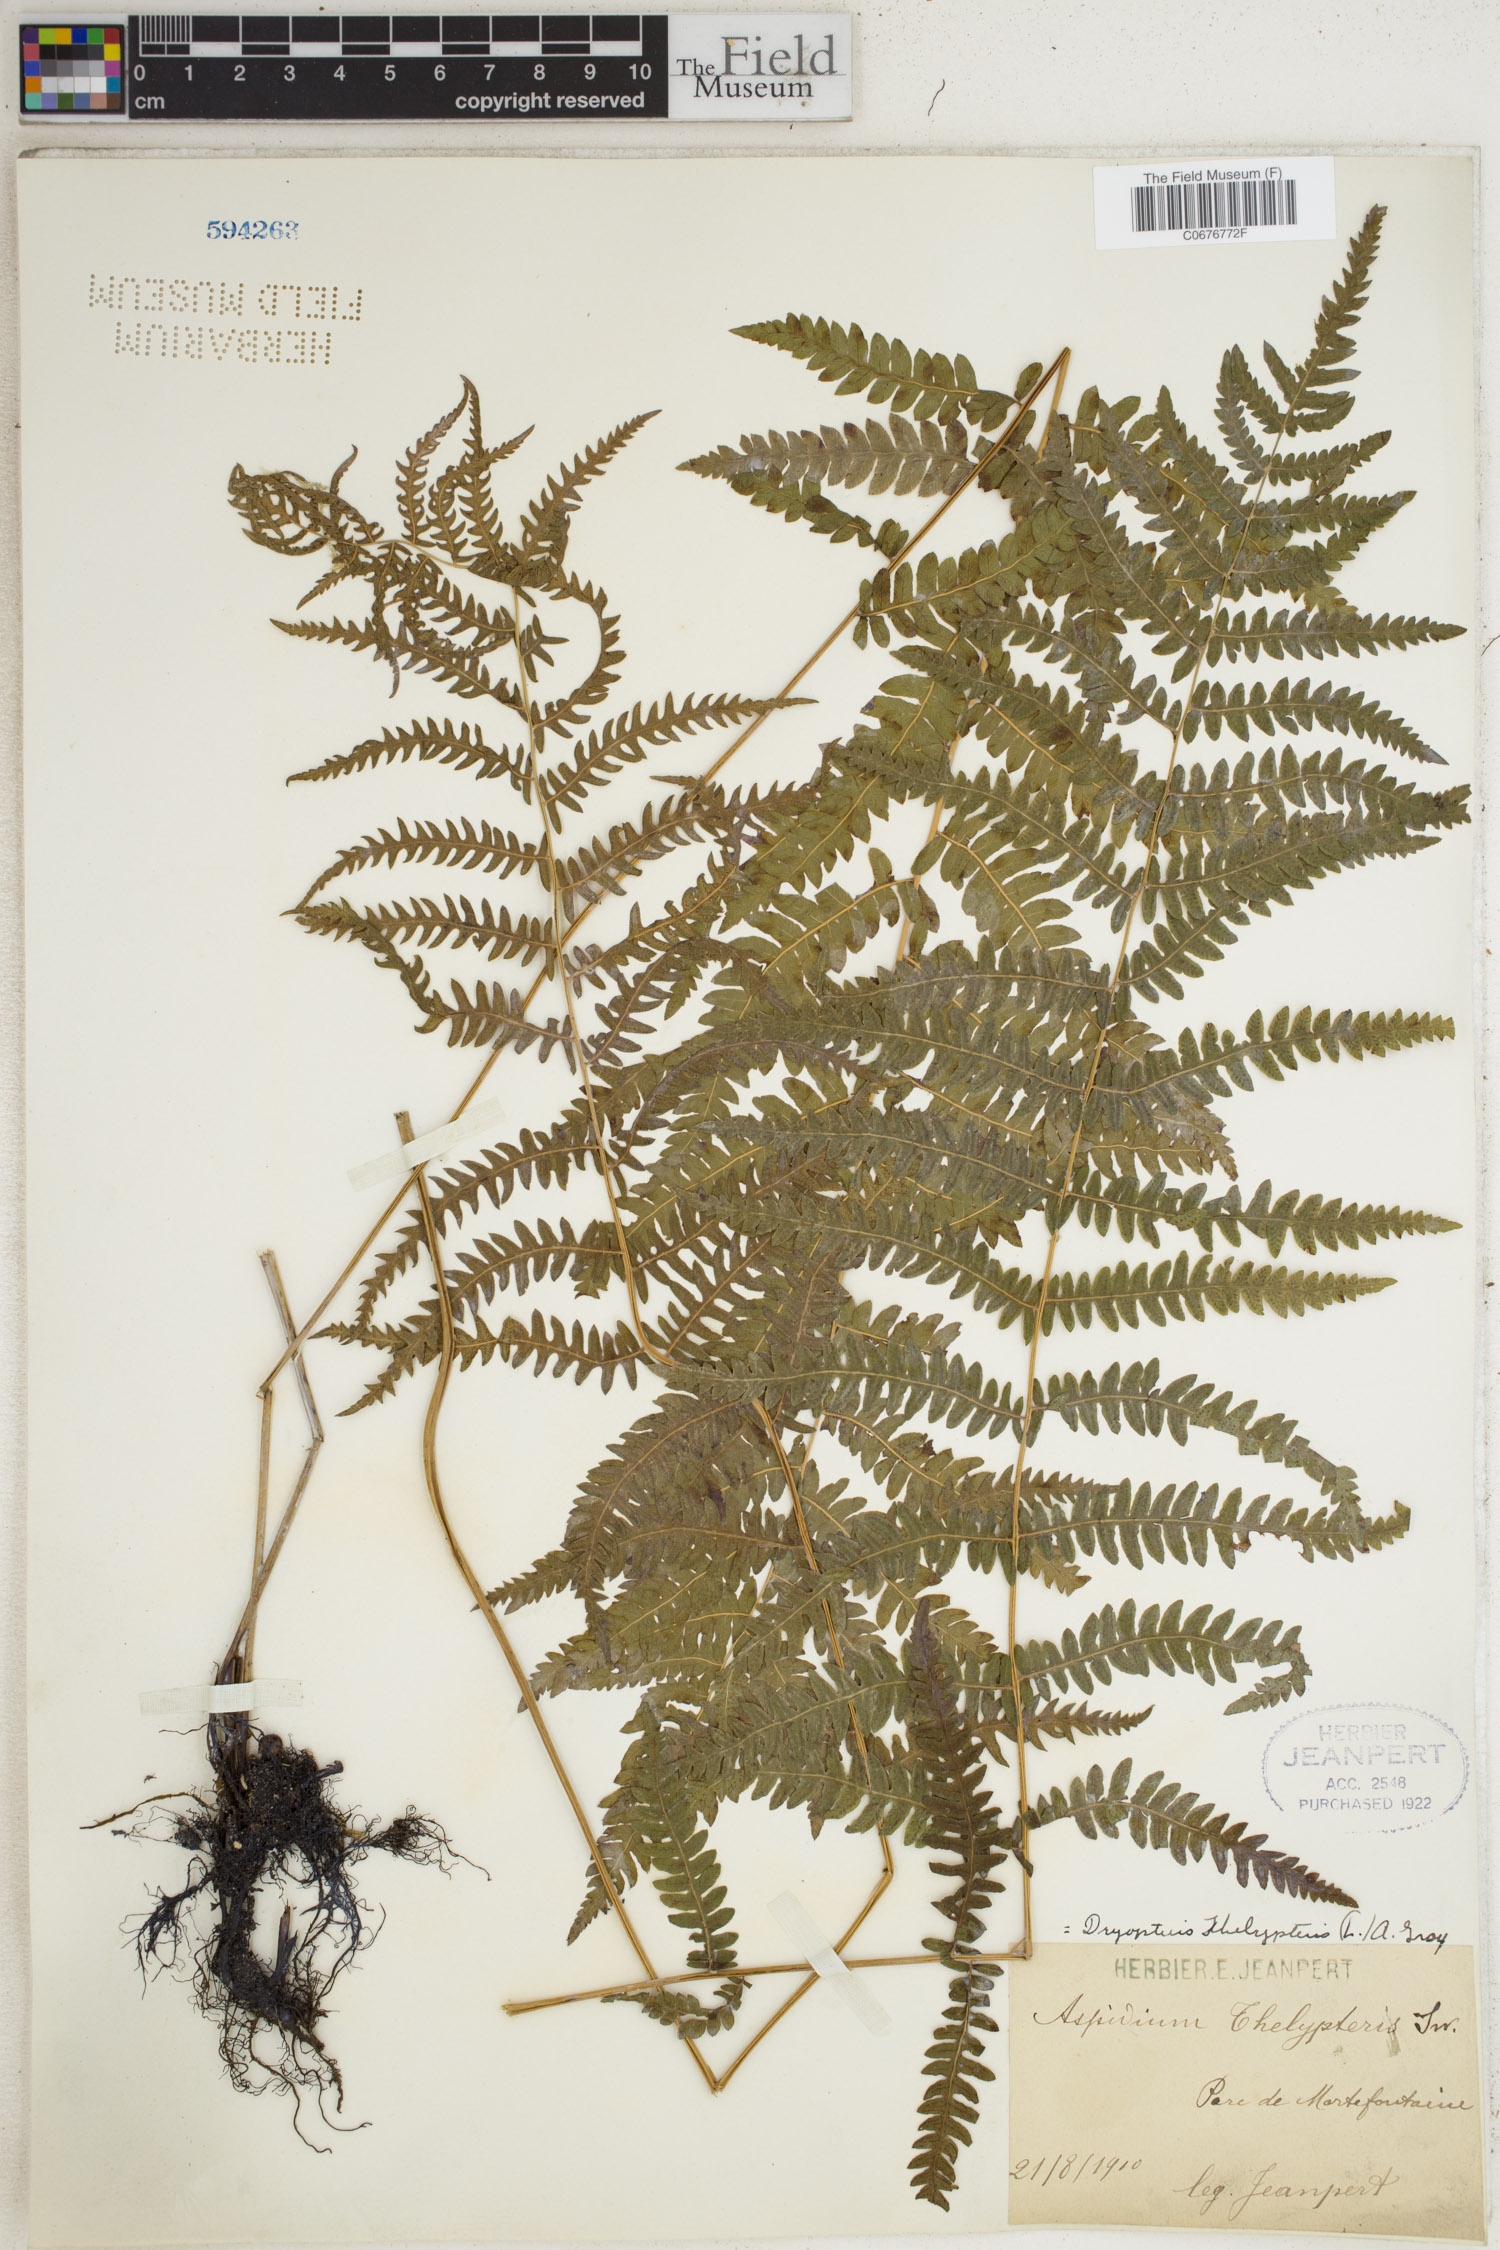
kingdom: Plantae
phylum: Tracheophyta
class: Polypodiopsida
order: Polypodiales
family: Thelypteridaceae
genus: Thelypteris
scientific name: Thelypteris palustris
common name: Marsh fern
